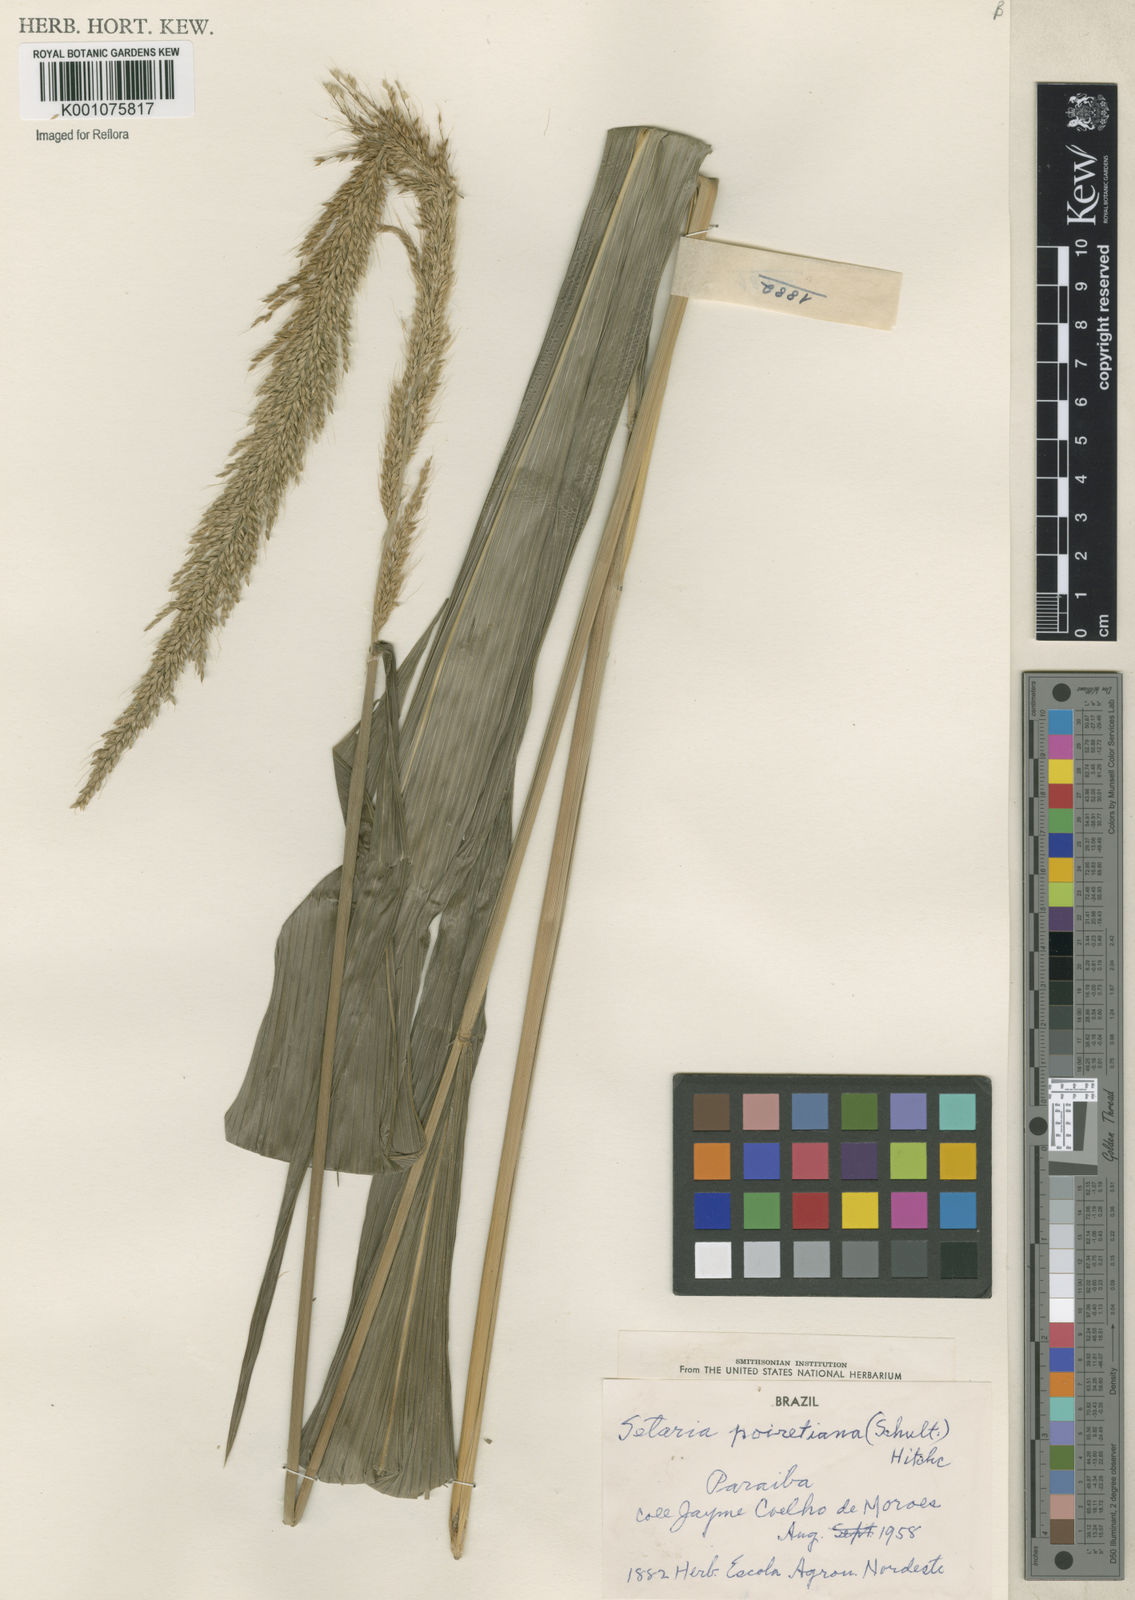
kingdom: Plantae
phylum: Tracheophyta
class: Liliopsida
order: Poales
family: Poaceae
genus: Setaria
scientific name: Setaria megaphylla
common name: Bigleaf bristlegrass
